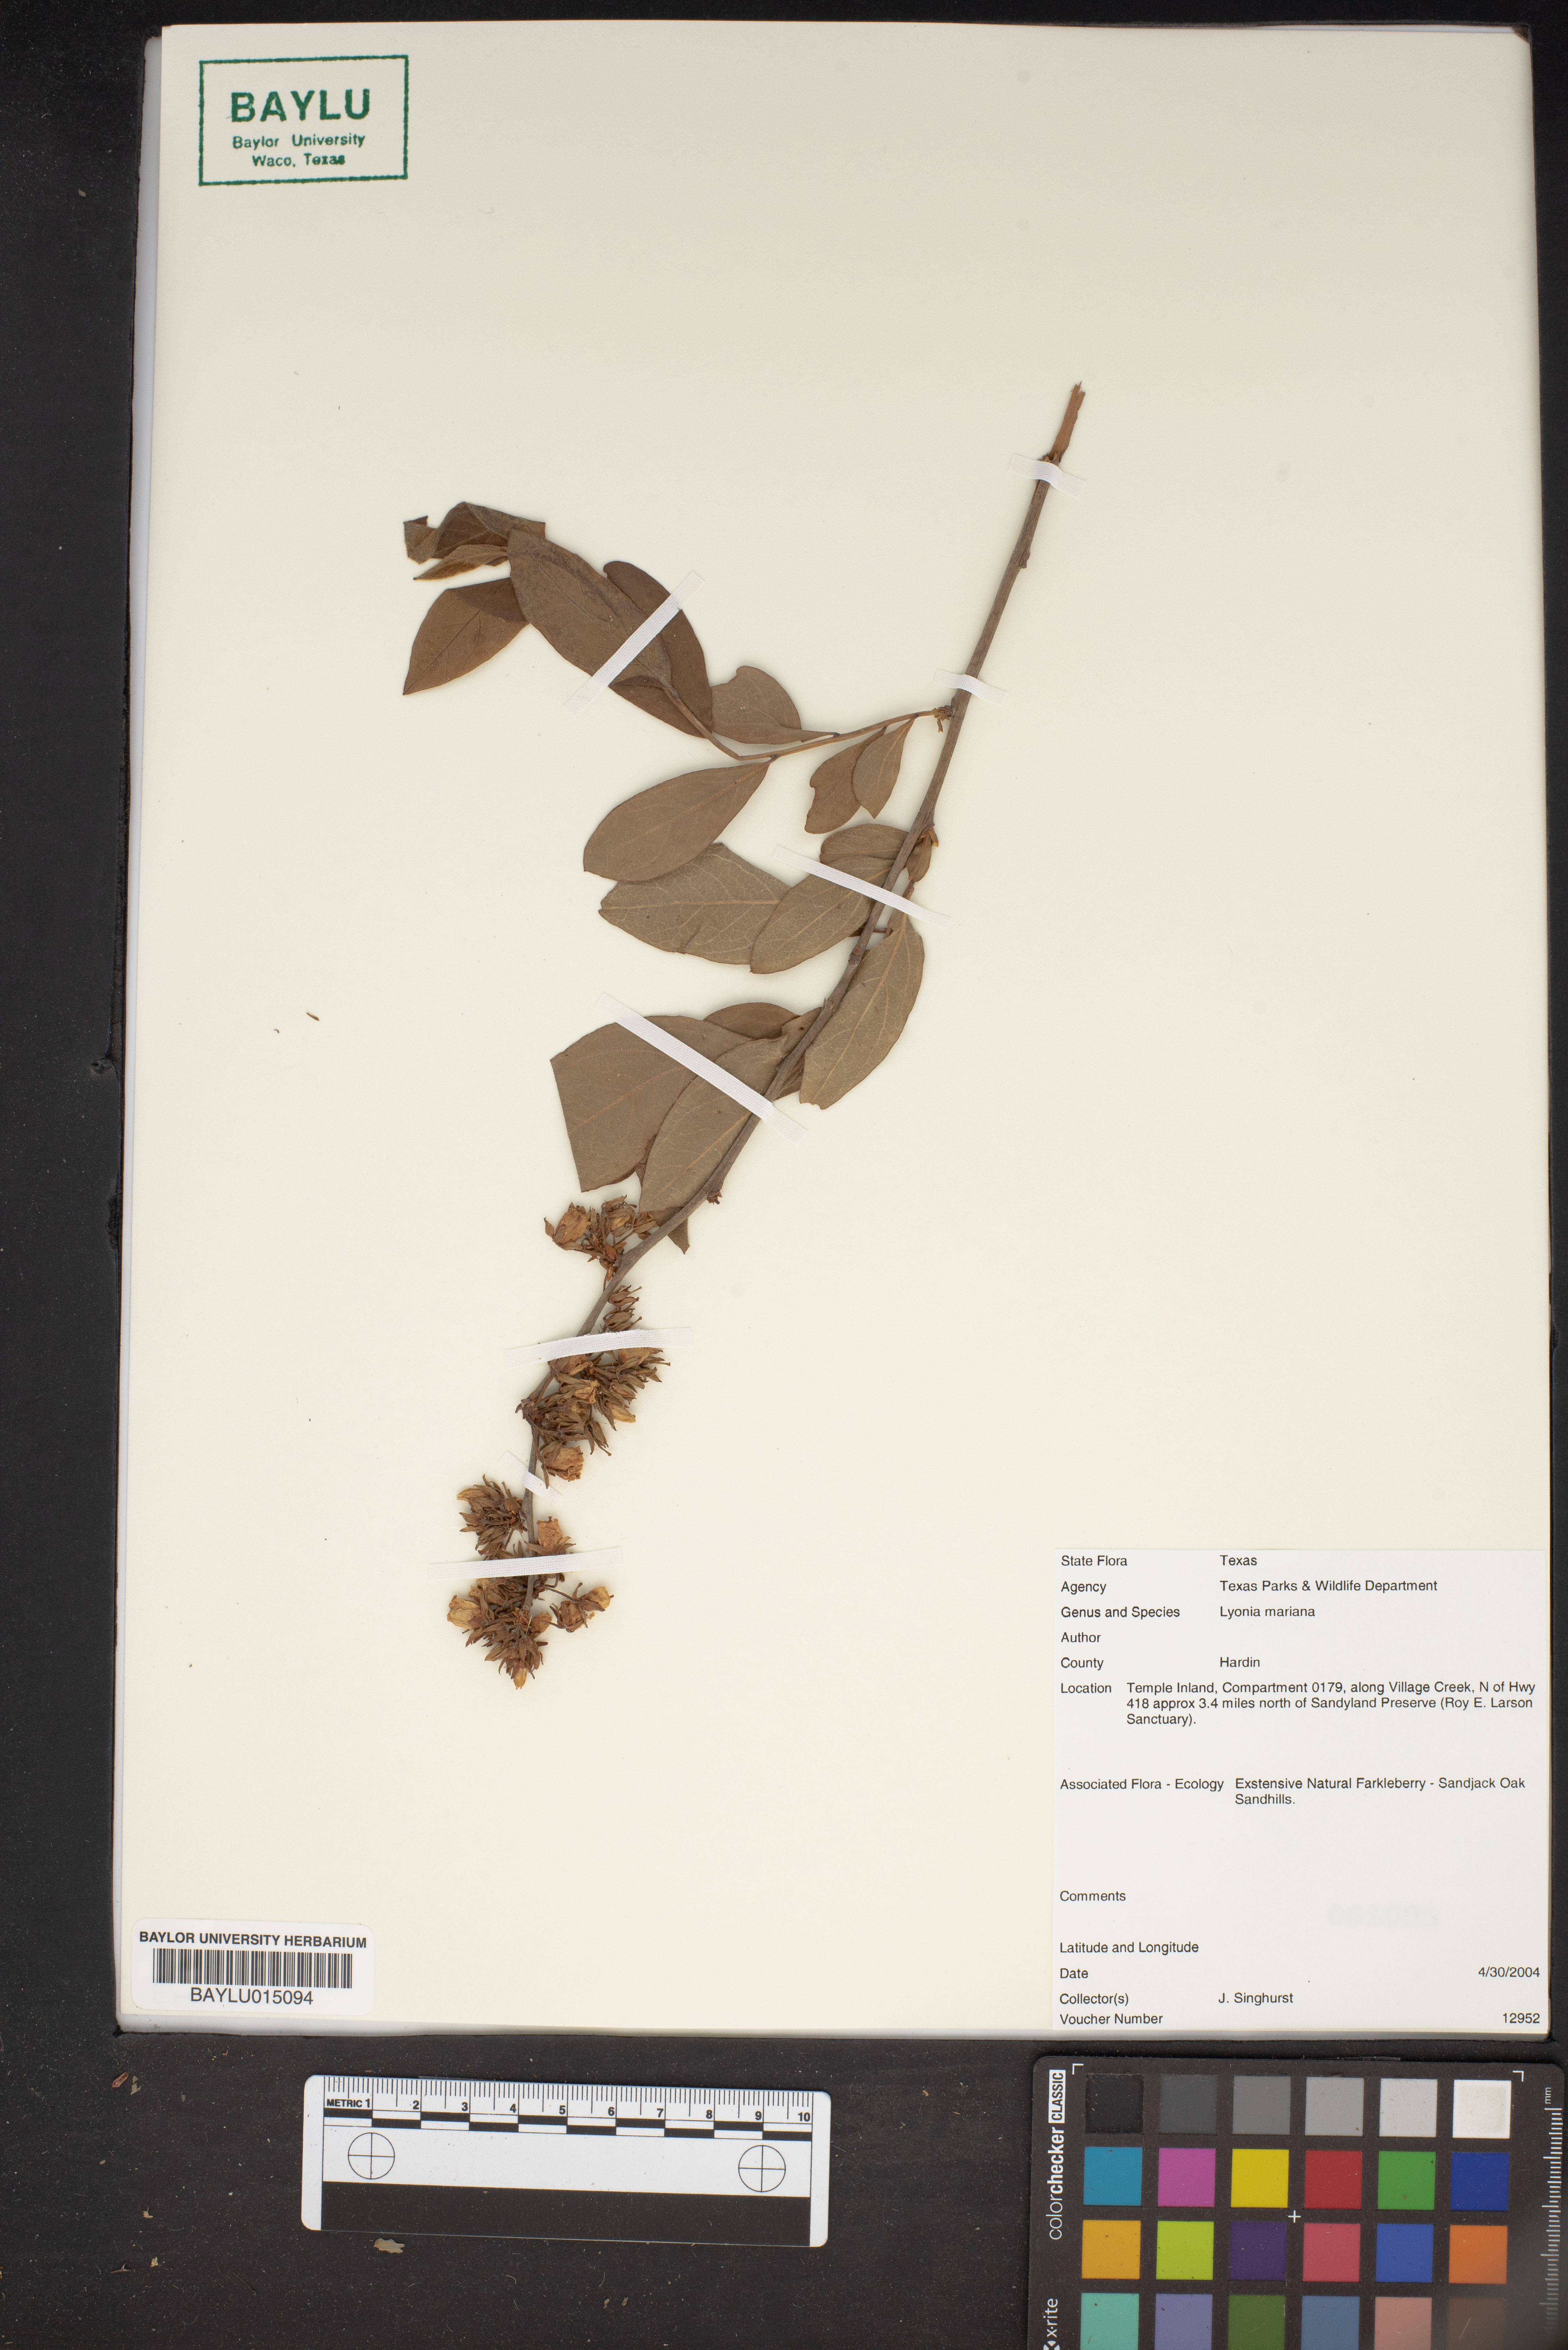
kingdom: Plantae
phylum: Tracheophyta
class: Magnoliopsida
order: Ericales
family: Ericaceae
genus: Lyonia
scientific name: Lyonia mariana
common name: Staggerbush
